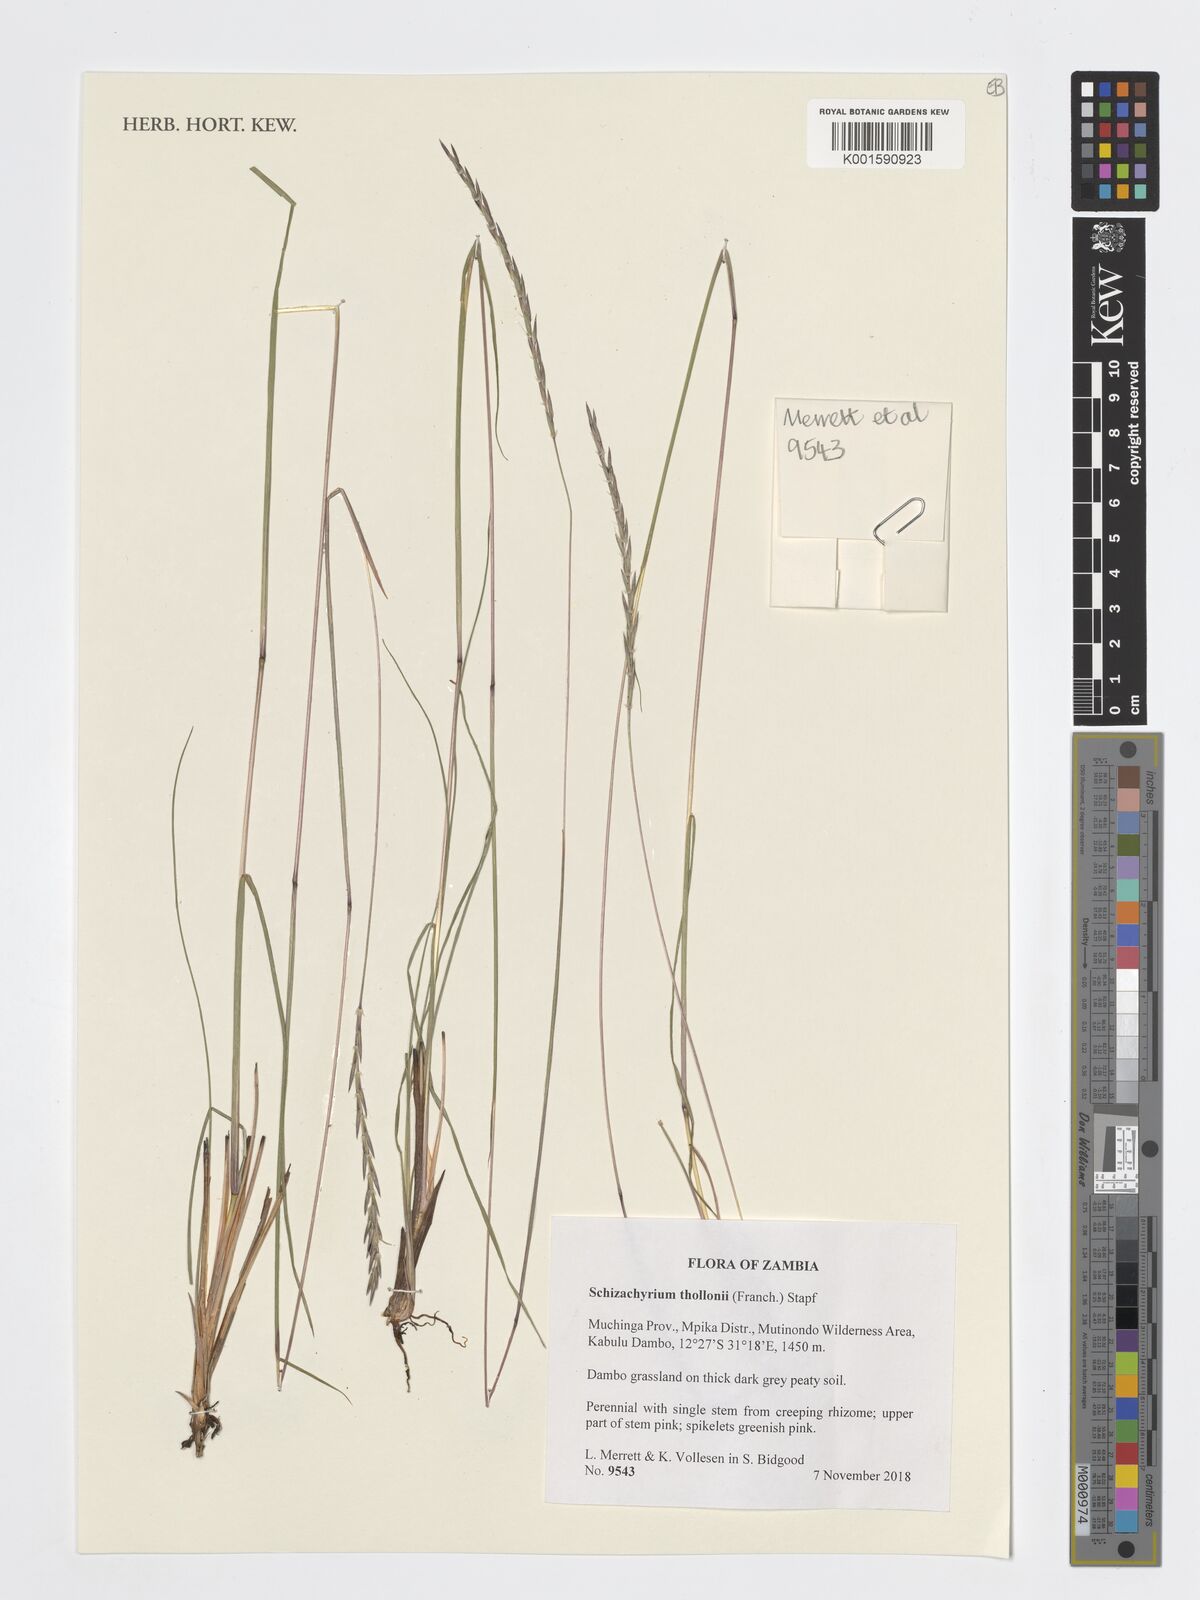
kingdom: Plantae
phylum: Tracheophyta
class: Liliopsida
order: Poales
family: Poaceae
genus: Schizachyrium
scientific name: Schizachyrium thollonii
